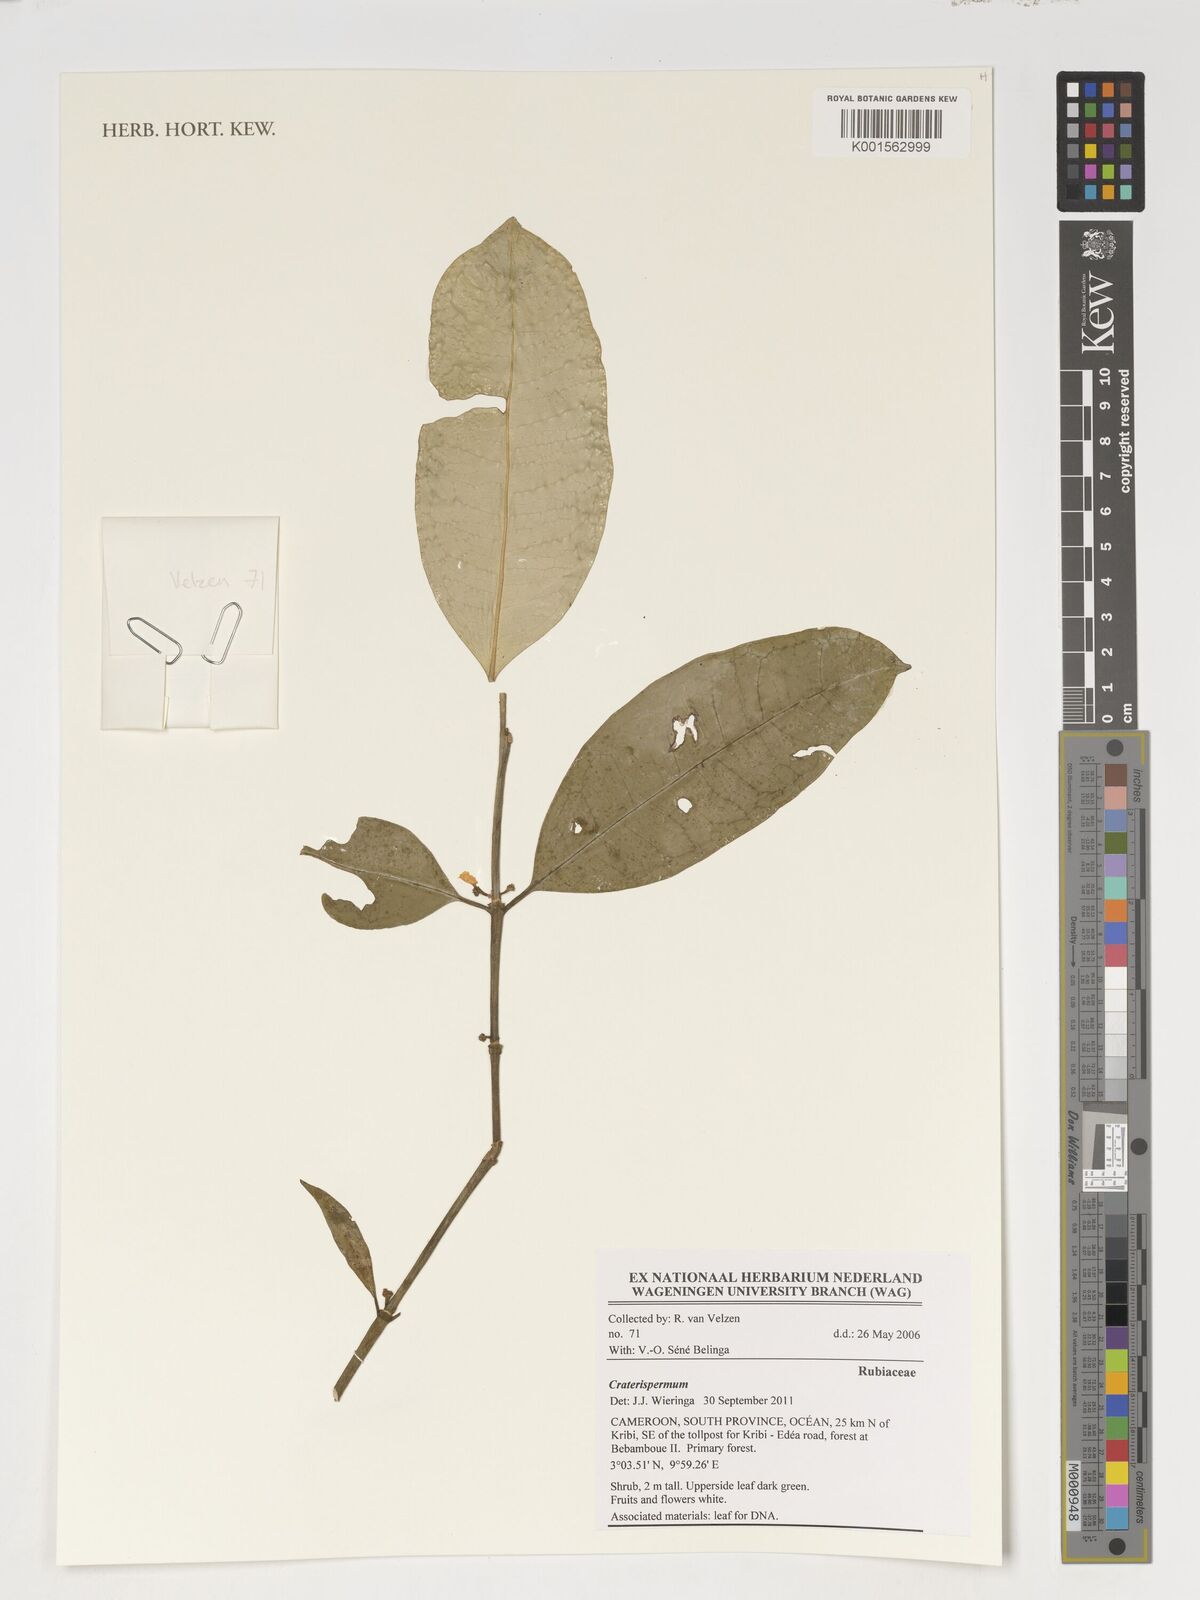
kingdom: Plantae
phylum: Tracheophyta
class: Magnoliopsida
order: Gentianales
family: Rubiaceae
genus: Craterispermum
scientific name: Craterispermum
